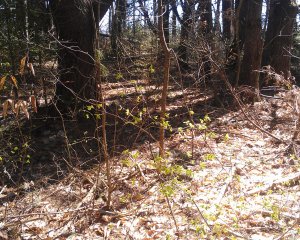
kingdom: Animalia
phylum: Arthropoda
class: Insecta
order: Lepidoptera
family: Pieridae
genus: Pieris
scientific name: Pieris oleracea
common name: Mustard White
